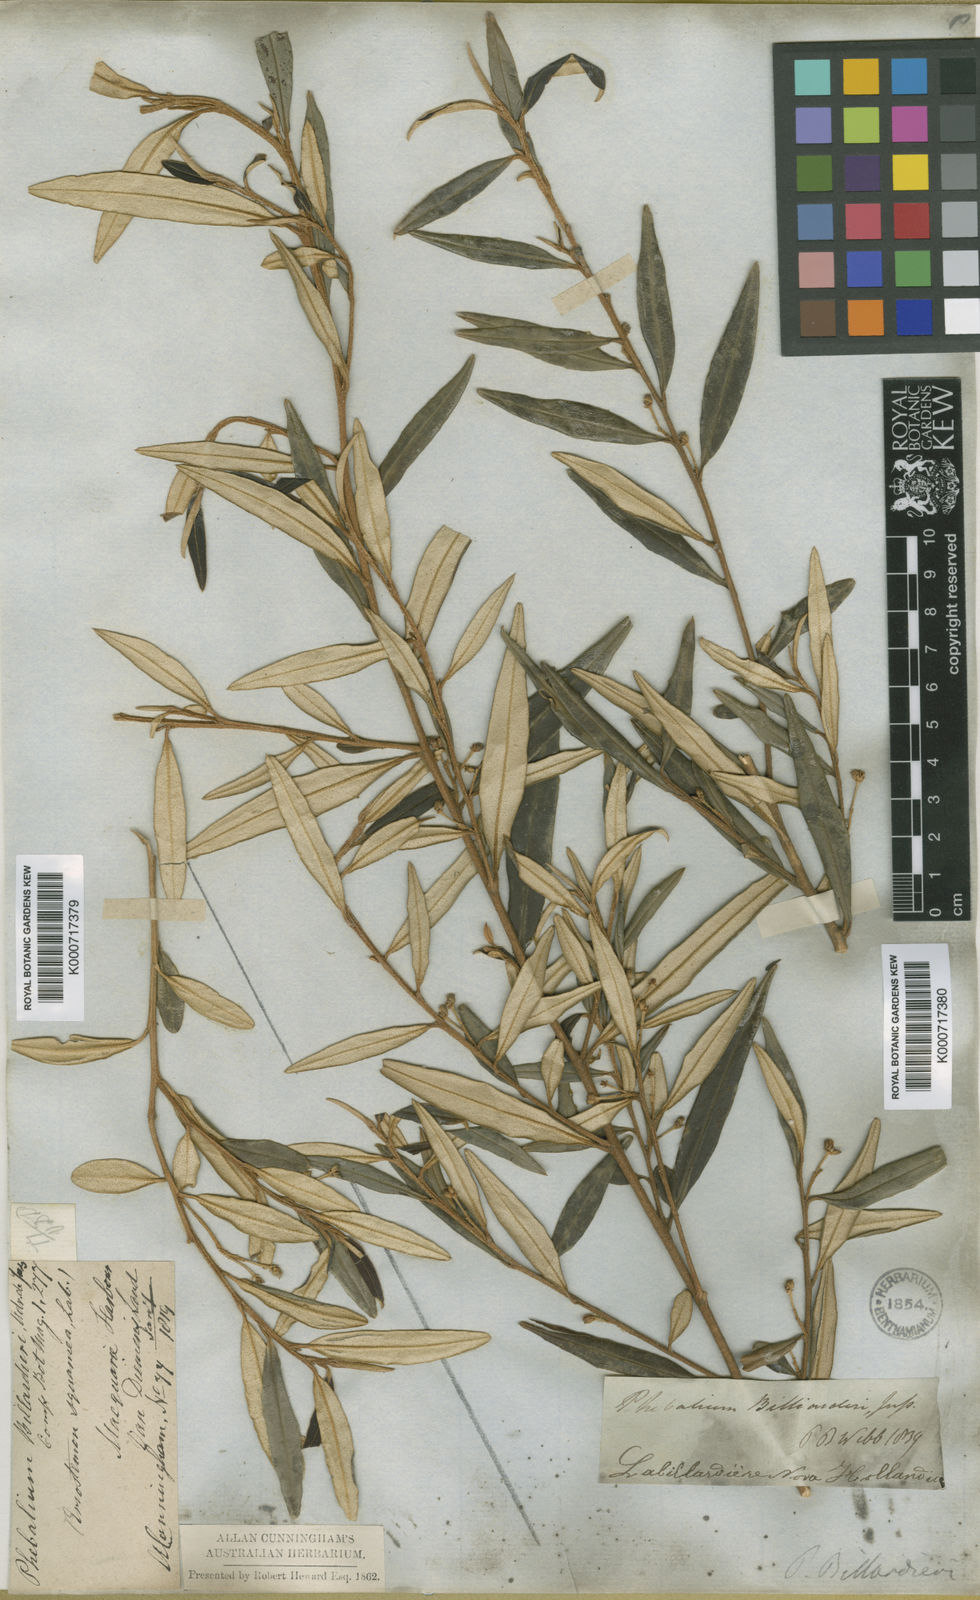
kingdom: Plantae
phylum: Tracheophyta
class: Magnoliopsida
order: Sapindales
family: Rutaceae
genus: Nematolepis
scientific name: Nematolepis squamea
